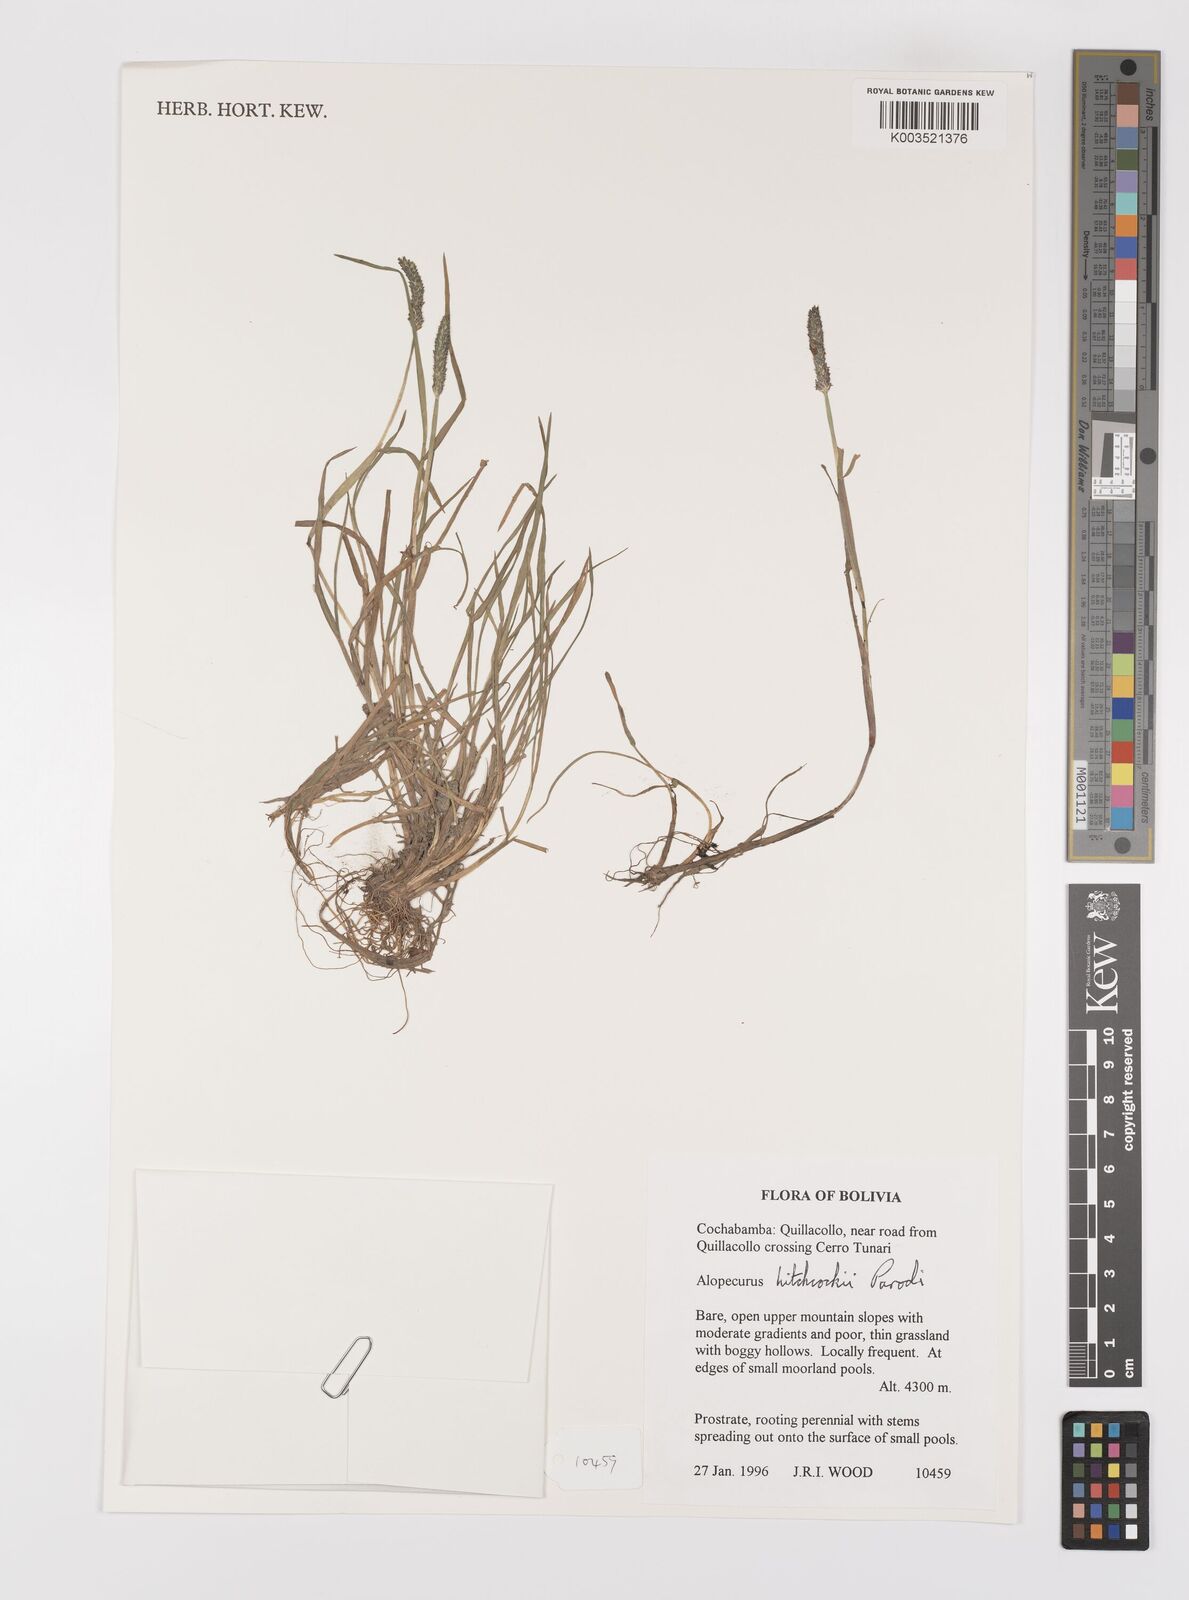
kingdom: Plantae
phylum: Tracheophyta
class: Liliopsida
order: Poales
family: Poaceae
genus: Alopecurus
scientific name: Alopecurus hitchcockii
